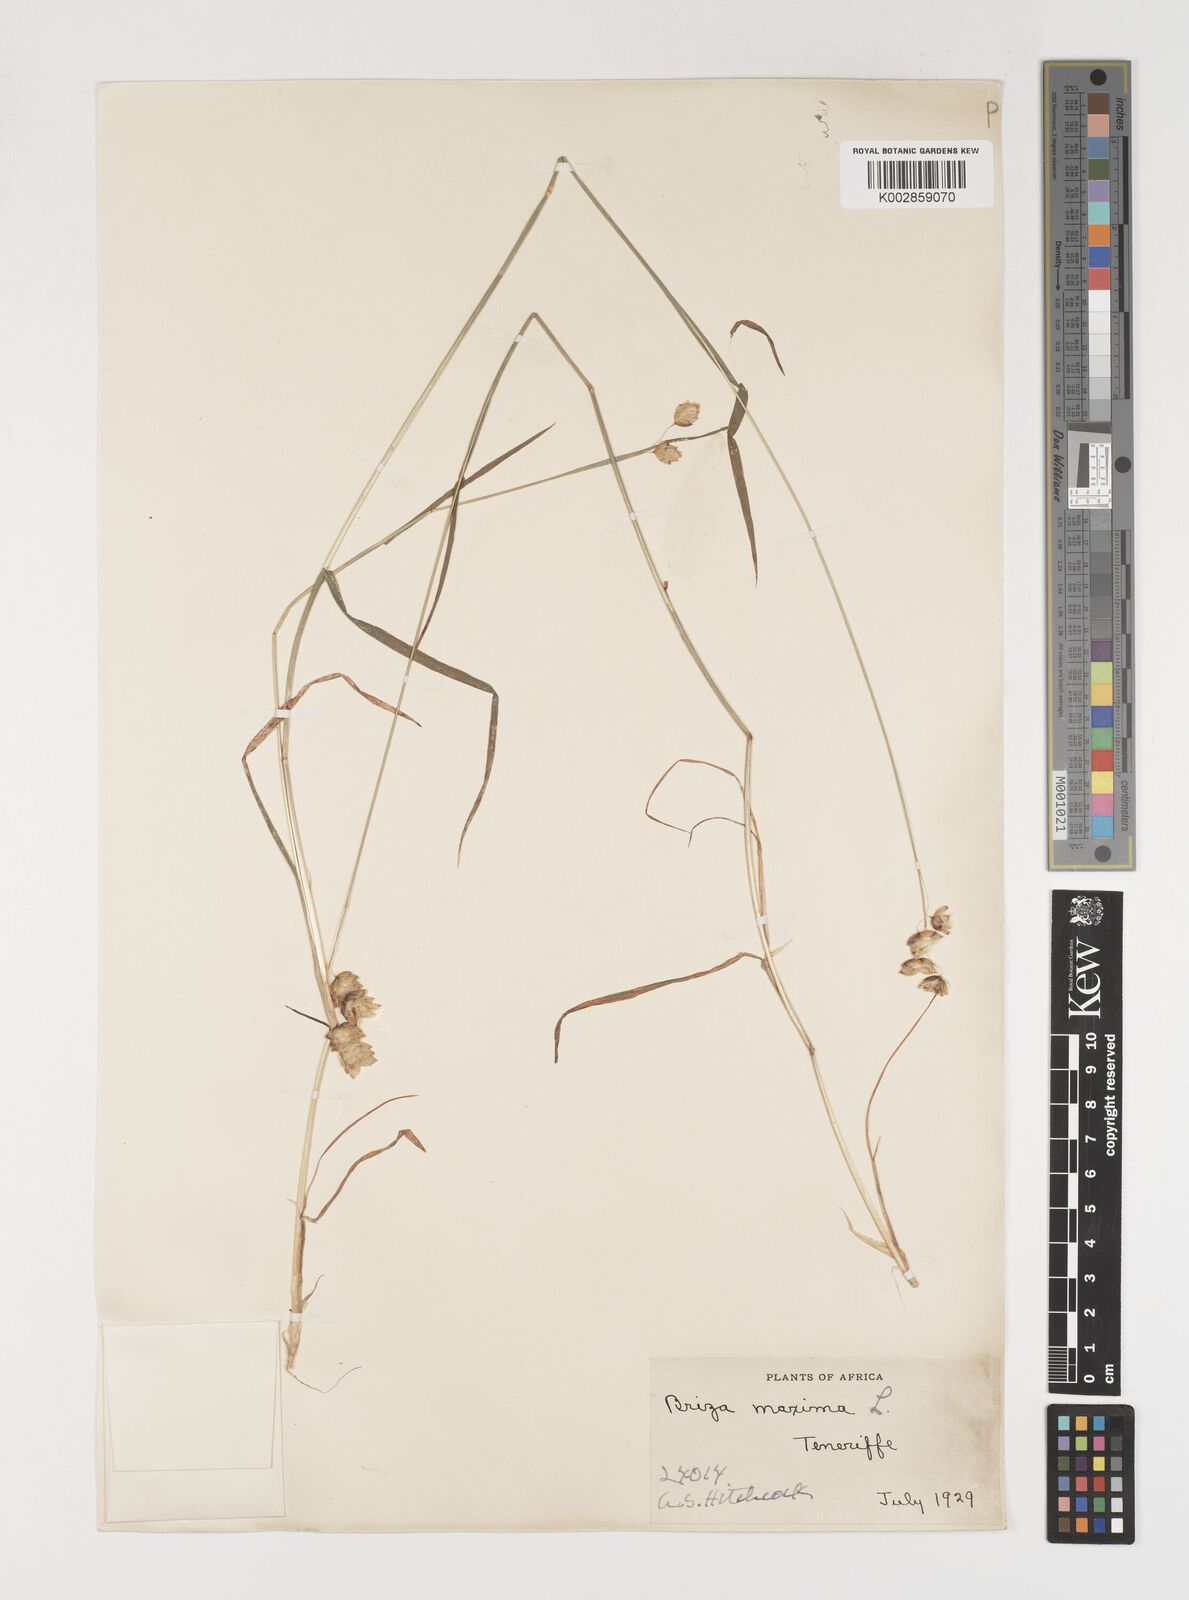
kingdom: Plantae
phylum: Tracheophyta
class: Liliopsida
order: Poales
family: Poaceae
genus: Briza
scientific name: Briza maxima
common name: Big quakinggrass
